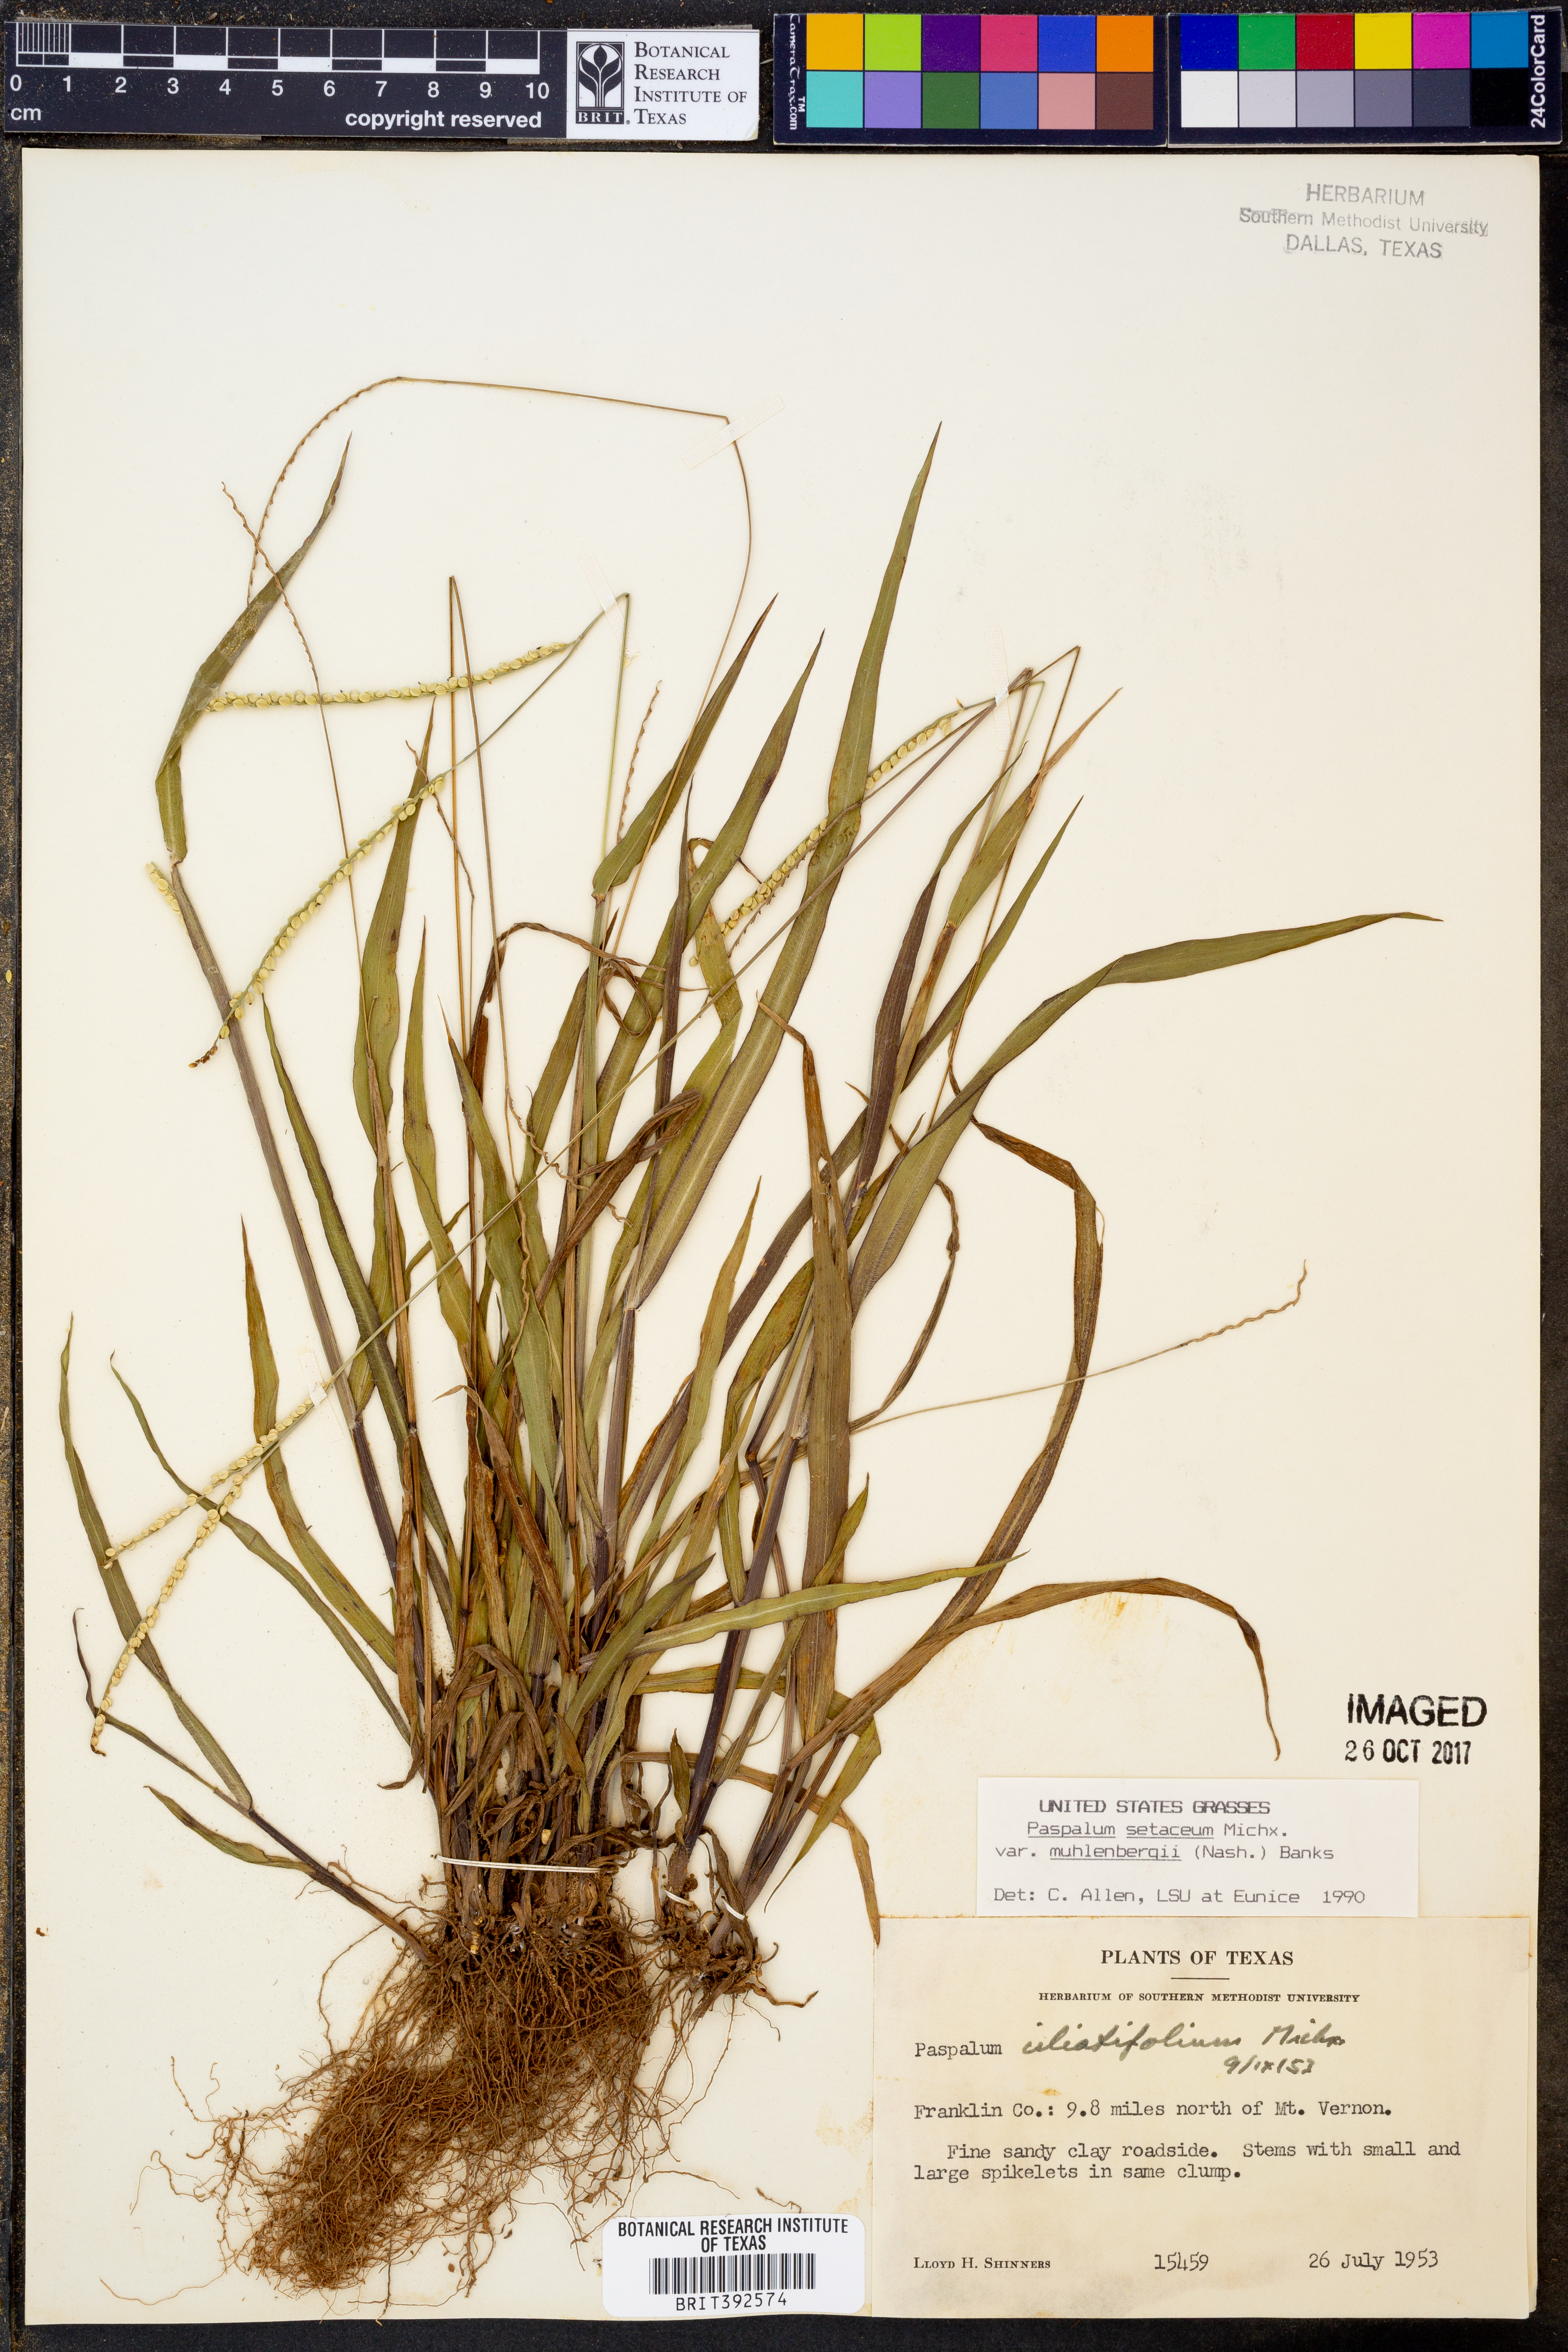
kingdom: Plantae
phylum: Tracheophyta
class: Liliopsida
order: Poales
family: Poaceae
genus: Paspalum
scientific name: Paspalum setaceum
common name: Slender paspalum
